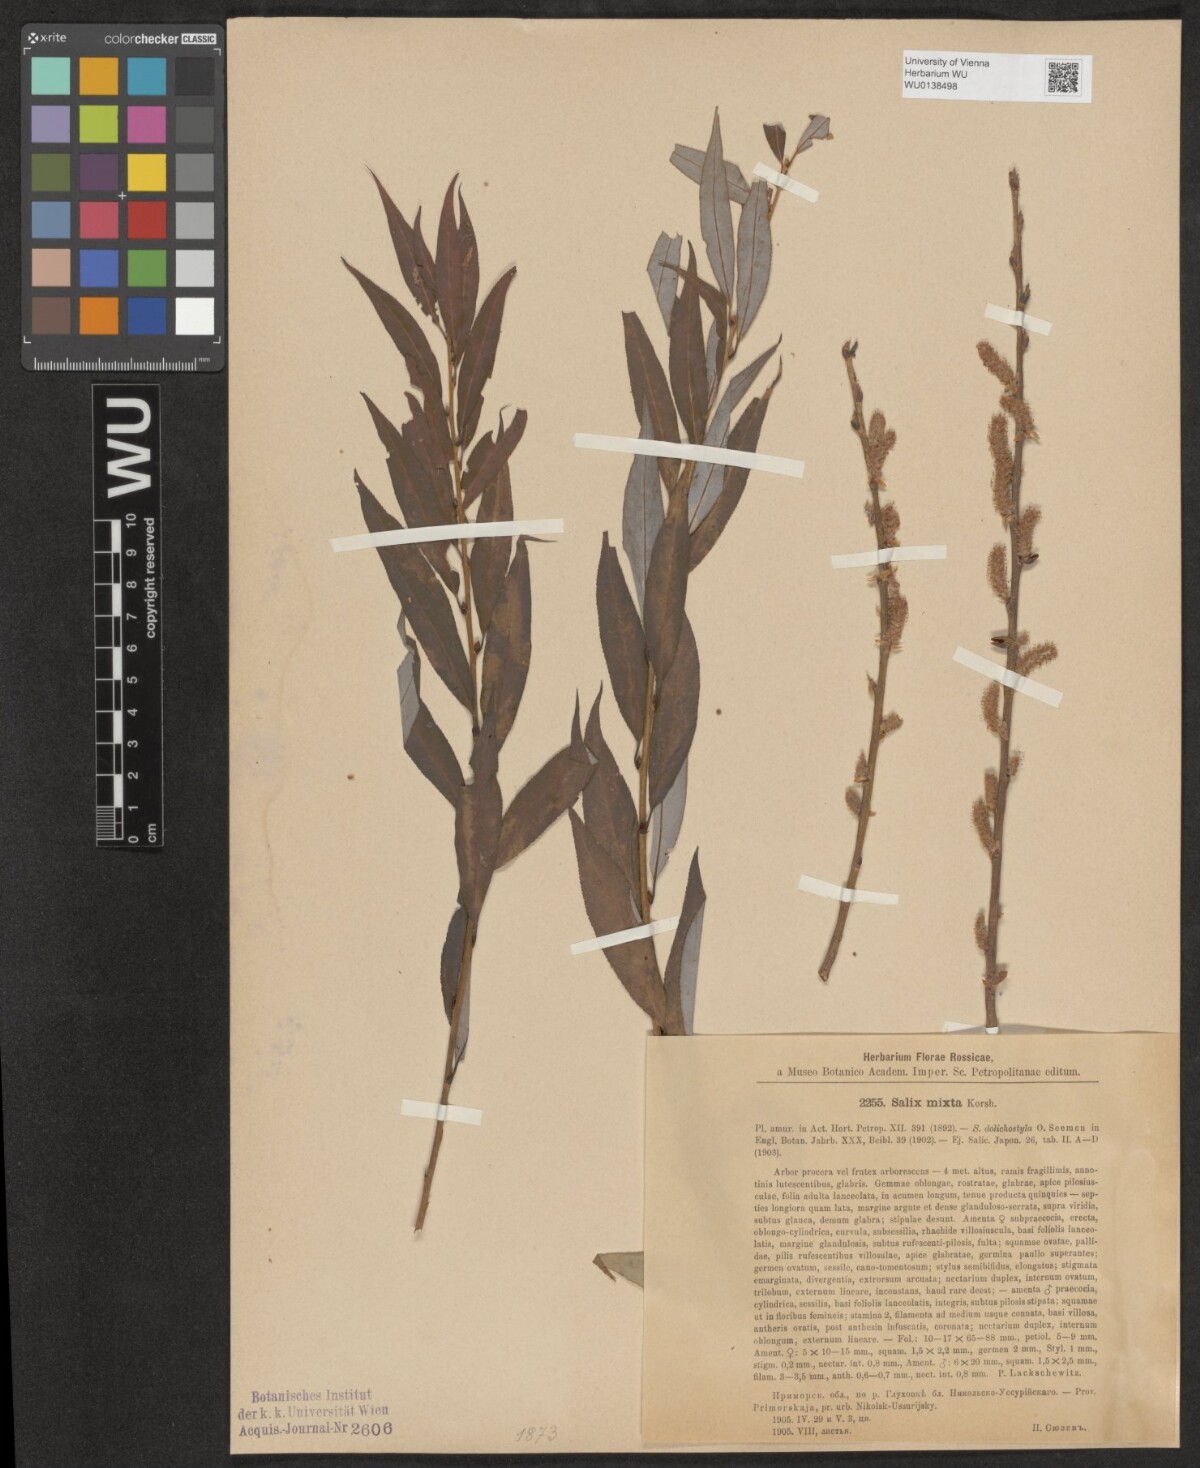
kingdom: Plantae
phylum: Tracheophyta
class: Magnoliopsida
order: Malpighiales
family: Salicaceae
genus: Salix
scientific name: Salix pierotii
